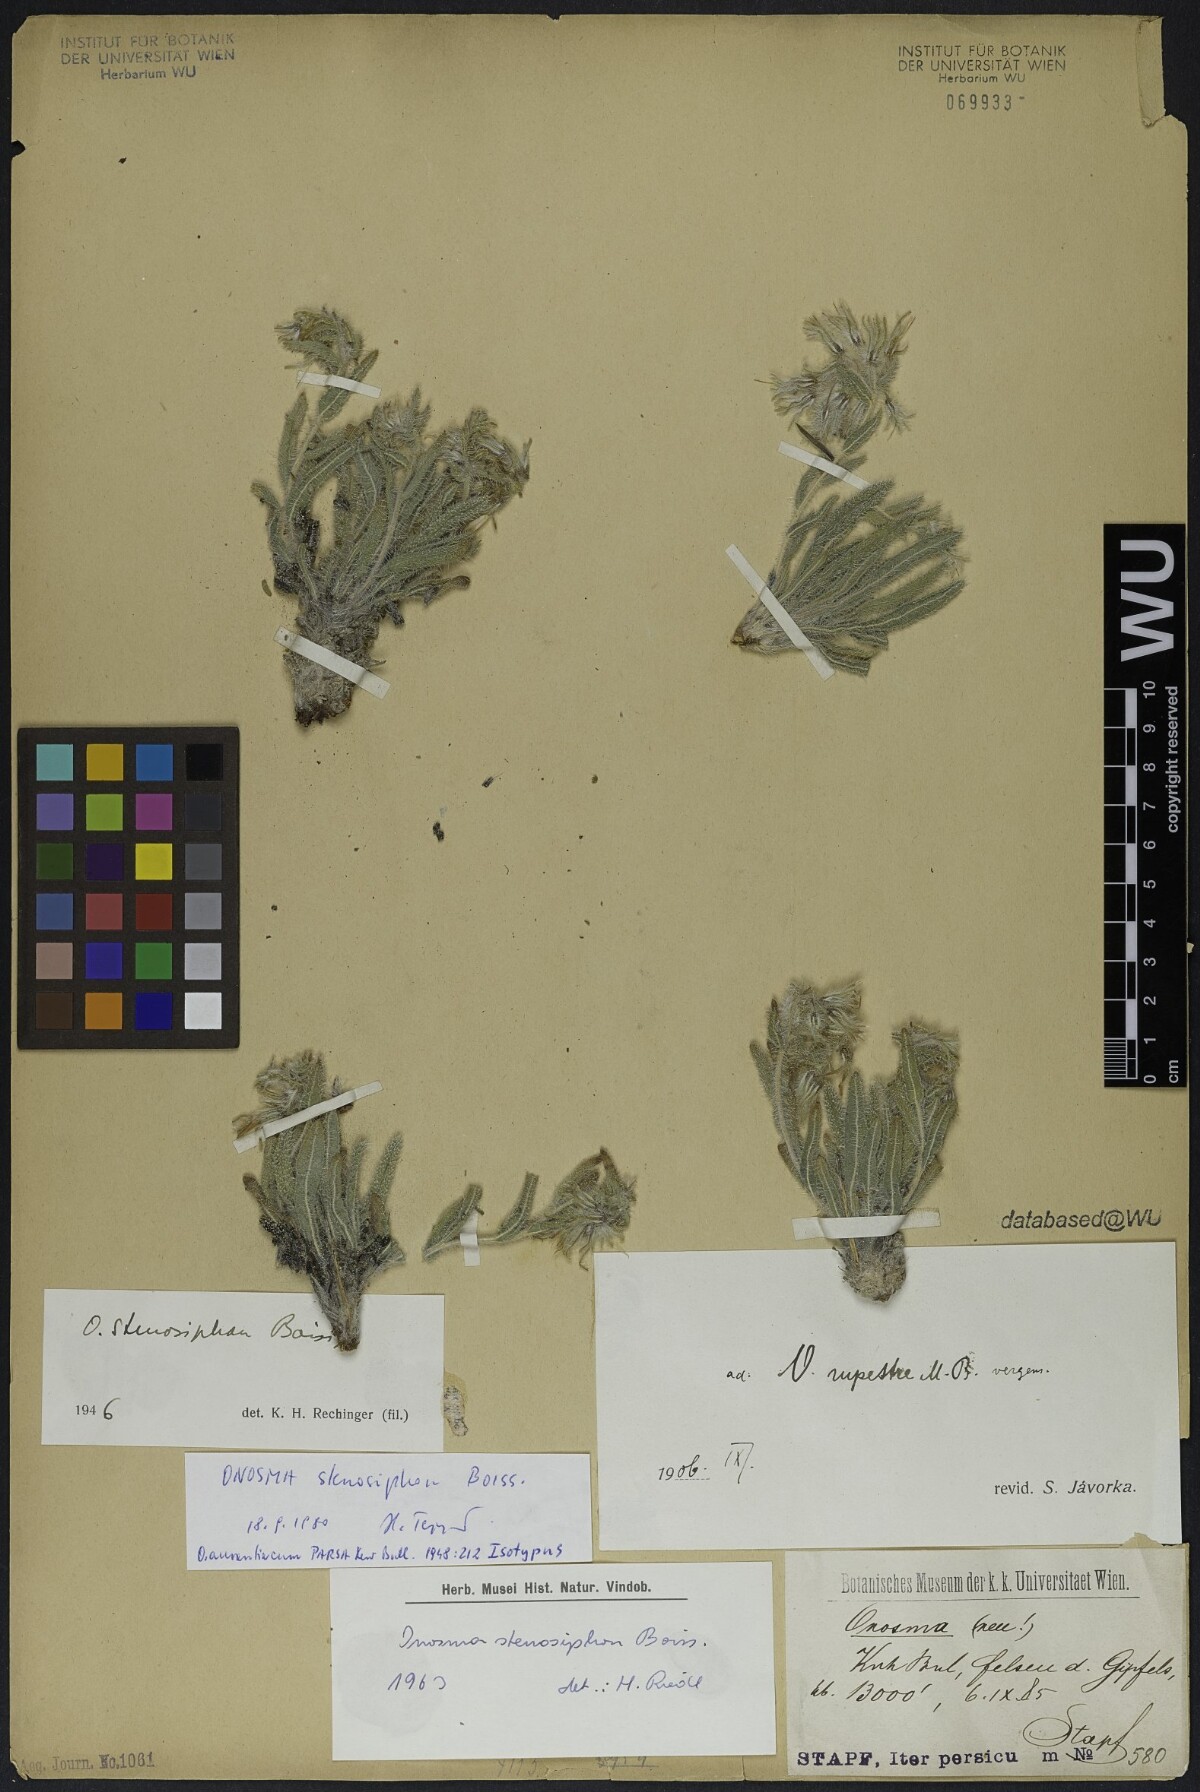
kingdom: Plantae
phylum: Tracheophyta
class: Magnoliopsida
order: Boraginales
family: Boraginaceae
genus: Maharanga
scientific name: Maharanga stenosiphon
